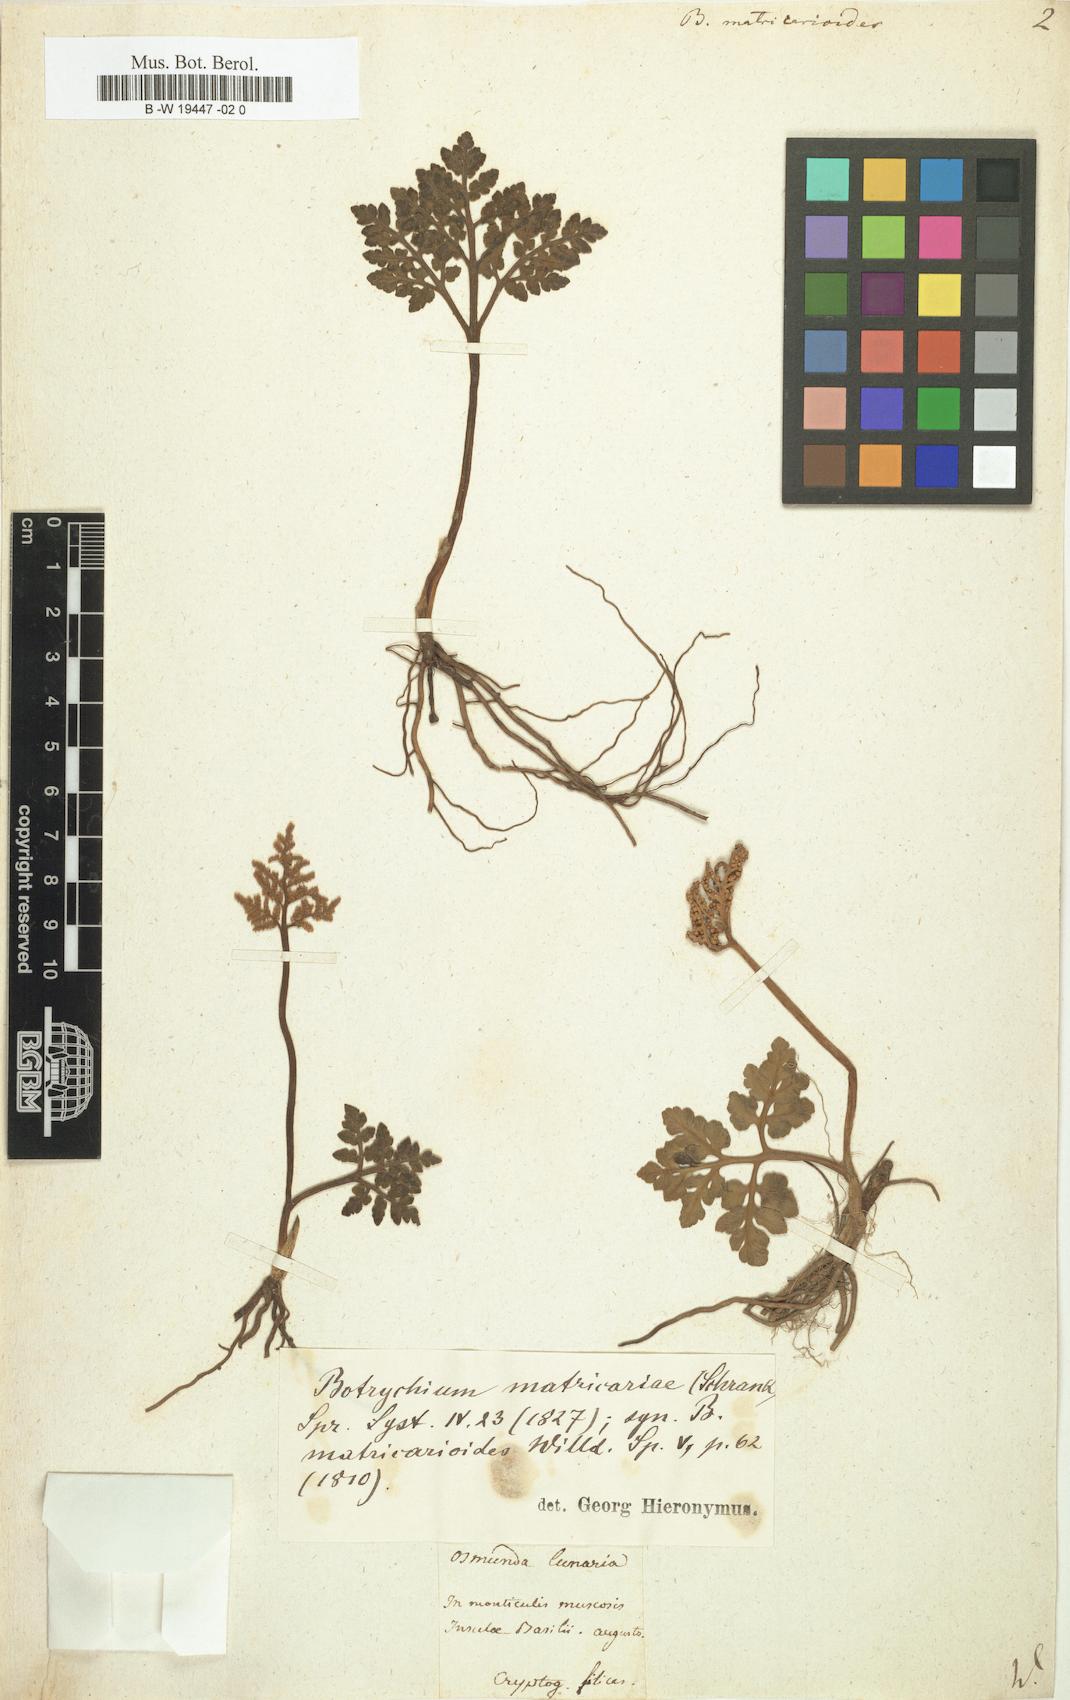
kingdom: Plantae
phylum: Tracheophyta
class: Polypodiopsida
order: Ophioglossales
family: Ophioglossaceae
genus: Sceptridium
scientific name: Sceptridium multifidum
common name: Leathery grape fern
